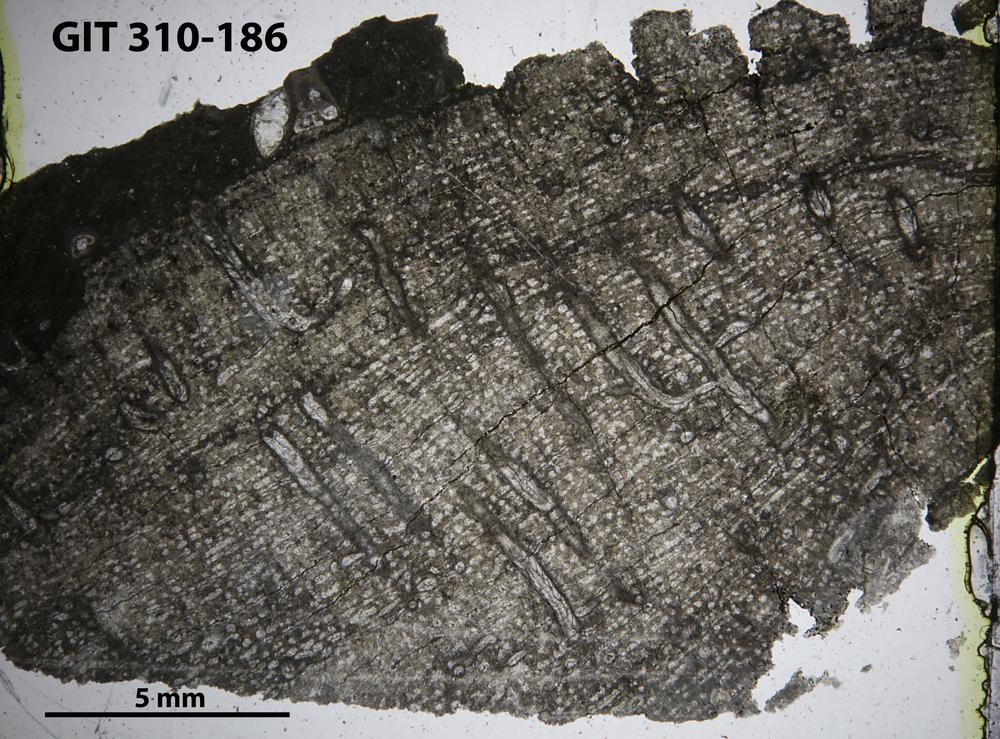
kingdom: Animalia
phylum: Porifera
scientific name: Porifera
